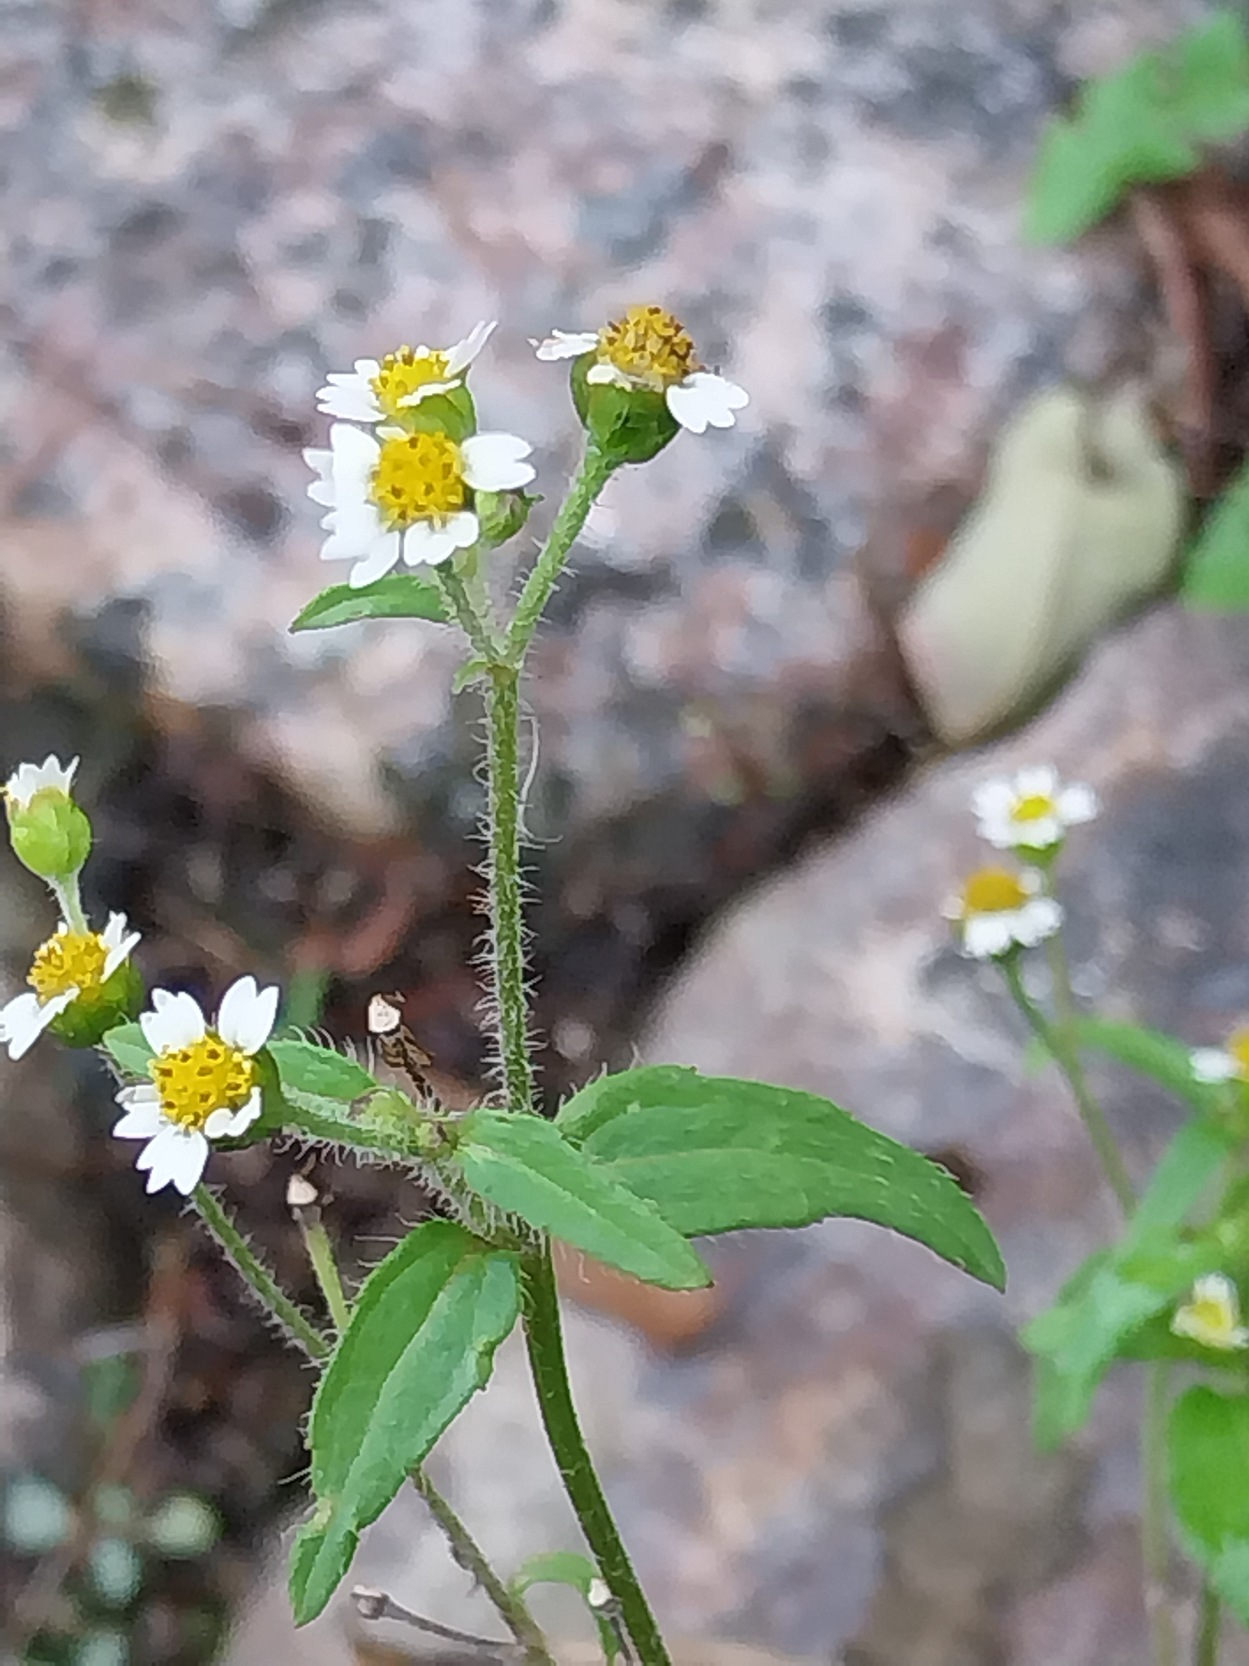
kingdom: Plantae
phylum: Tracheophyta
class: Magnoliopsida
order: Asterales
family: Asteraceae
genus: Galinsoga
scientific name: Galinsoga quadriradiata
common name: Kirtel-kortstråle
